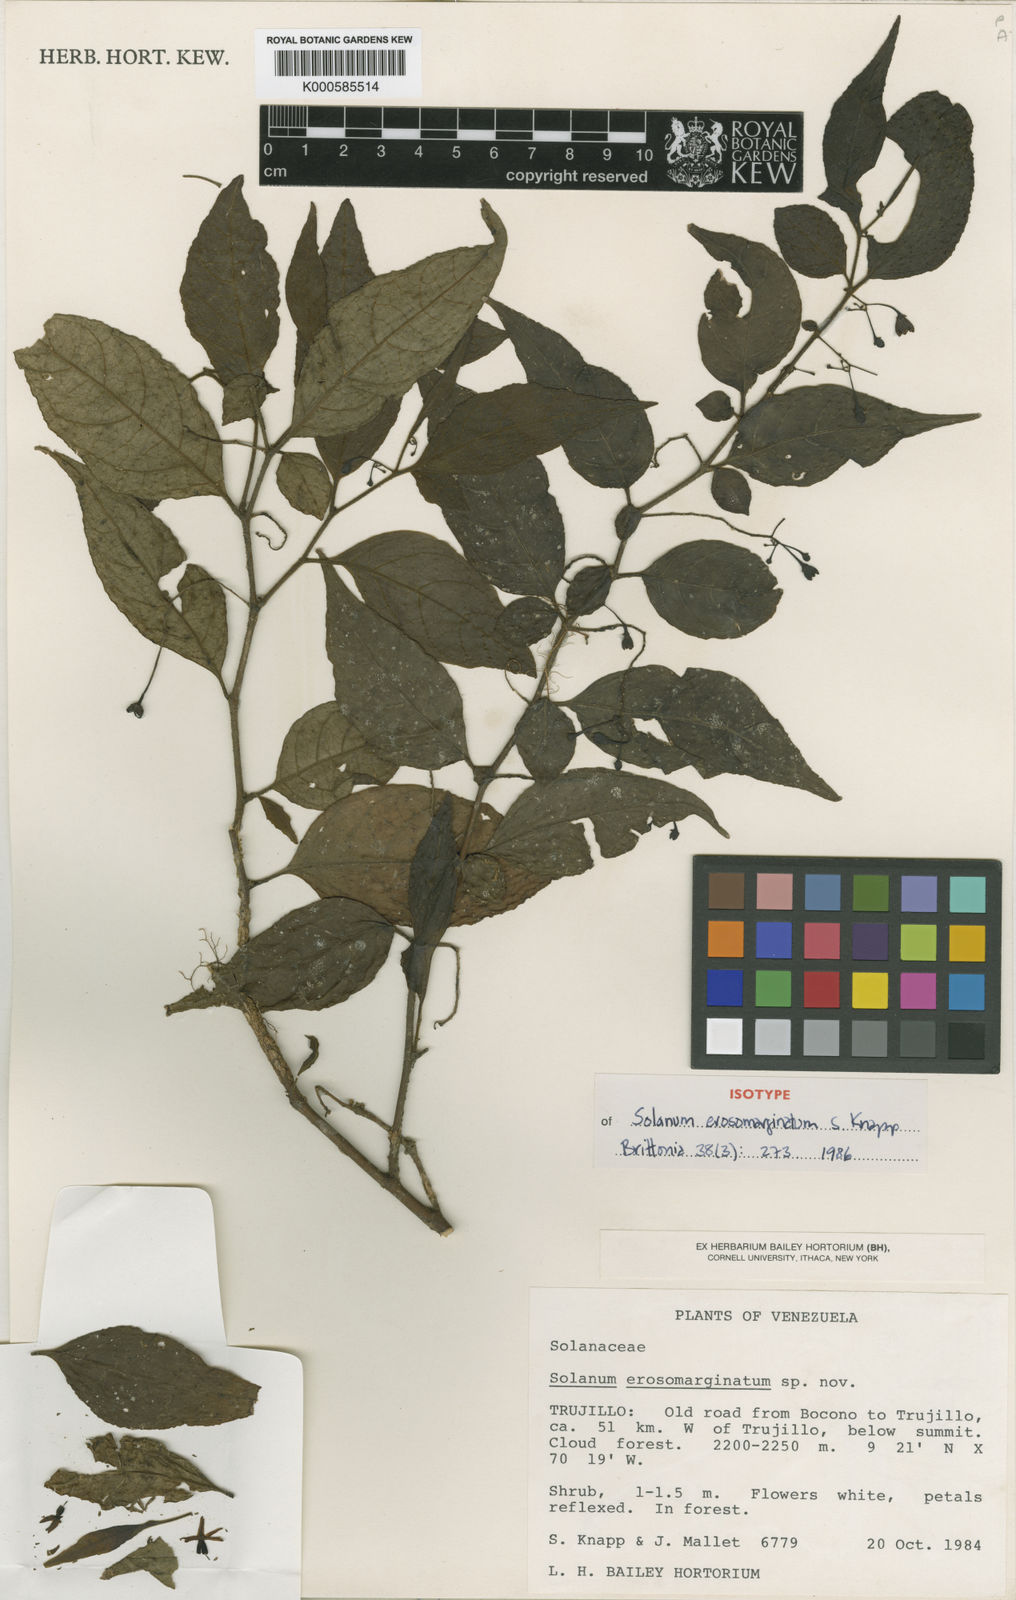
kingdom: Plantae
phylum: Tracheophyta
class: Magnoliopsida
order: Solanales
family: Solanaceae
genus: Solanum
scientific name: Solanum erosomarginatum
